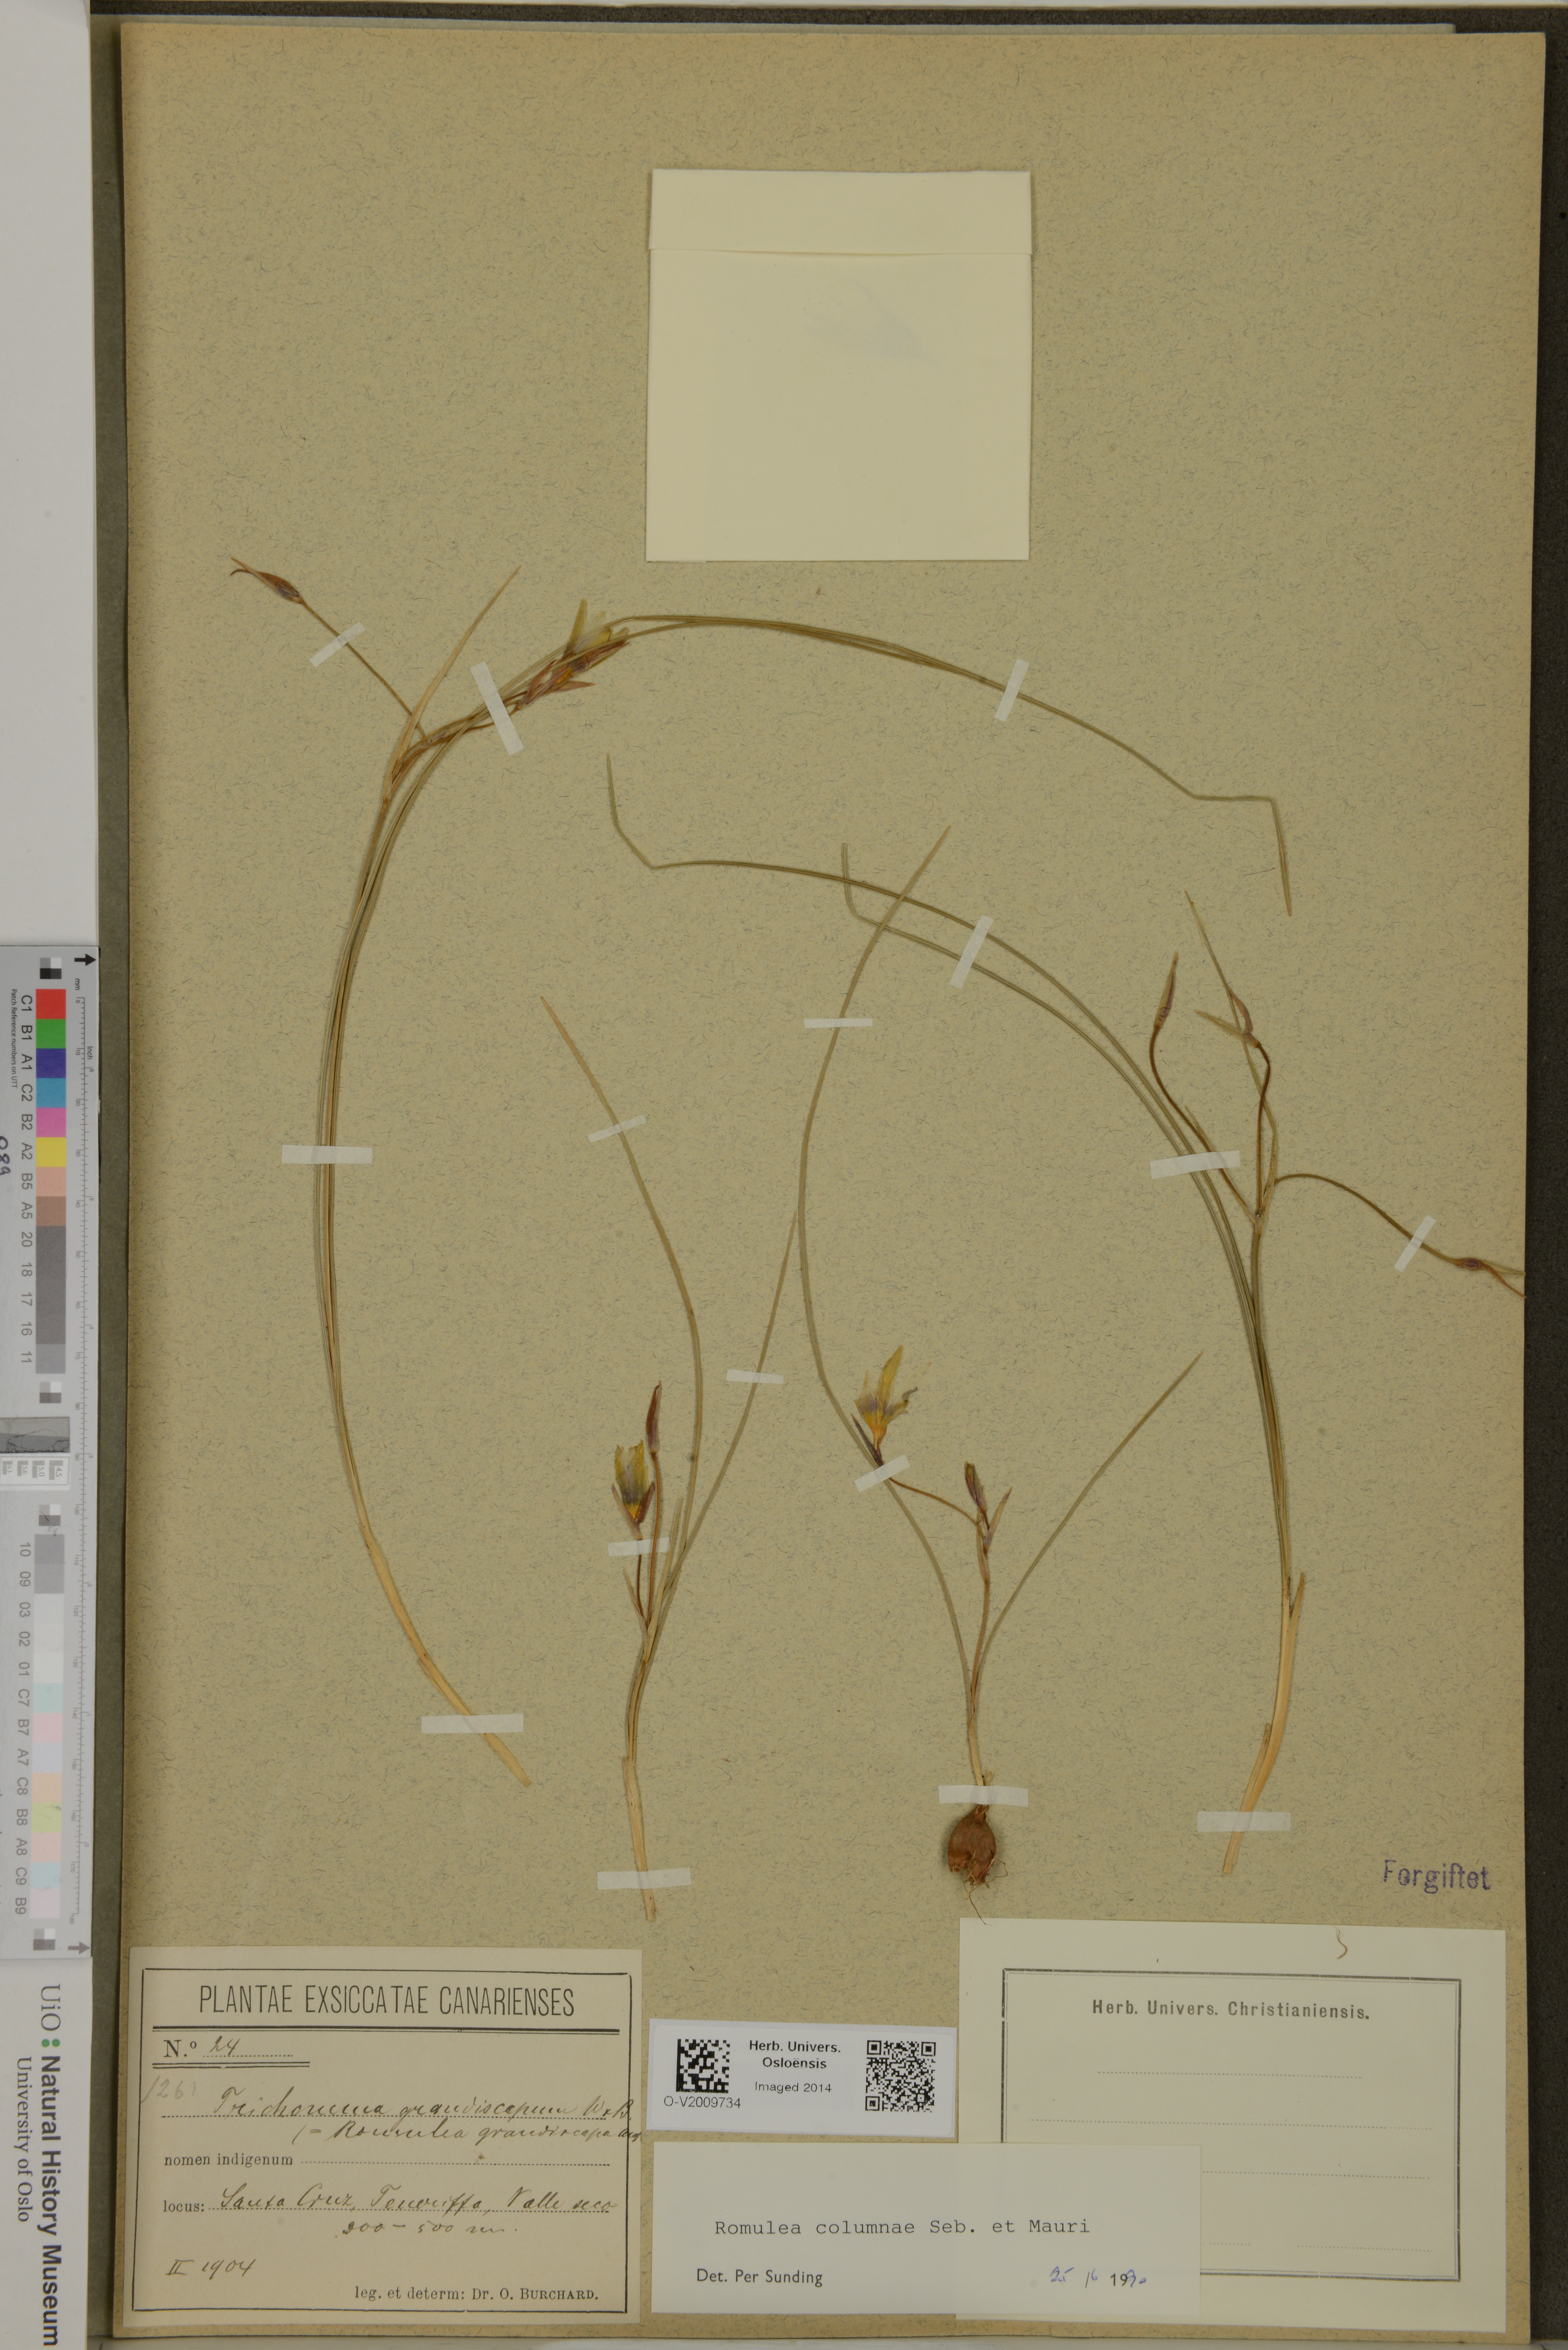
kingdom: Plantae
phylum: Tracheophyta
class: Liliopsida
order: Asparagales
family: Iridaceae
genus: Romulea
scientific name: Romulea columnae
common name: Sand-crocus
